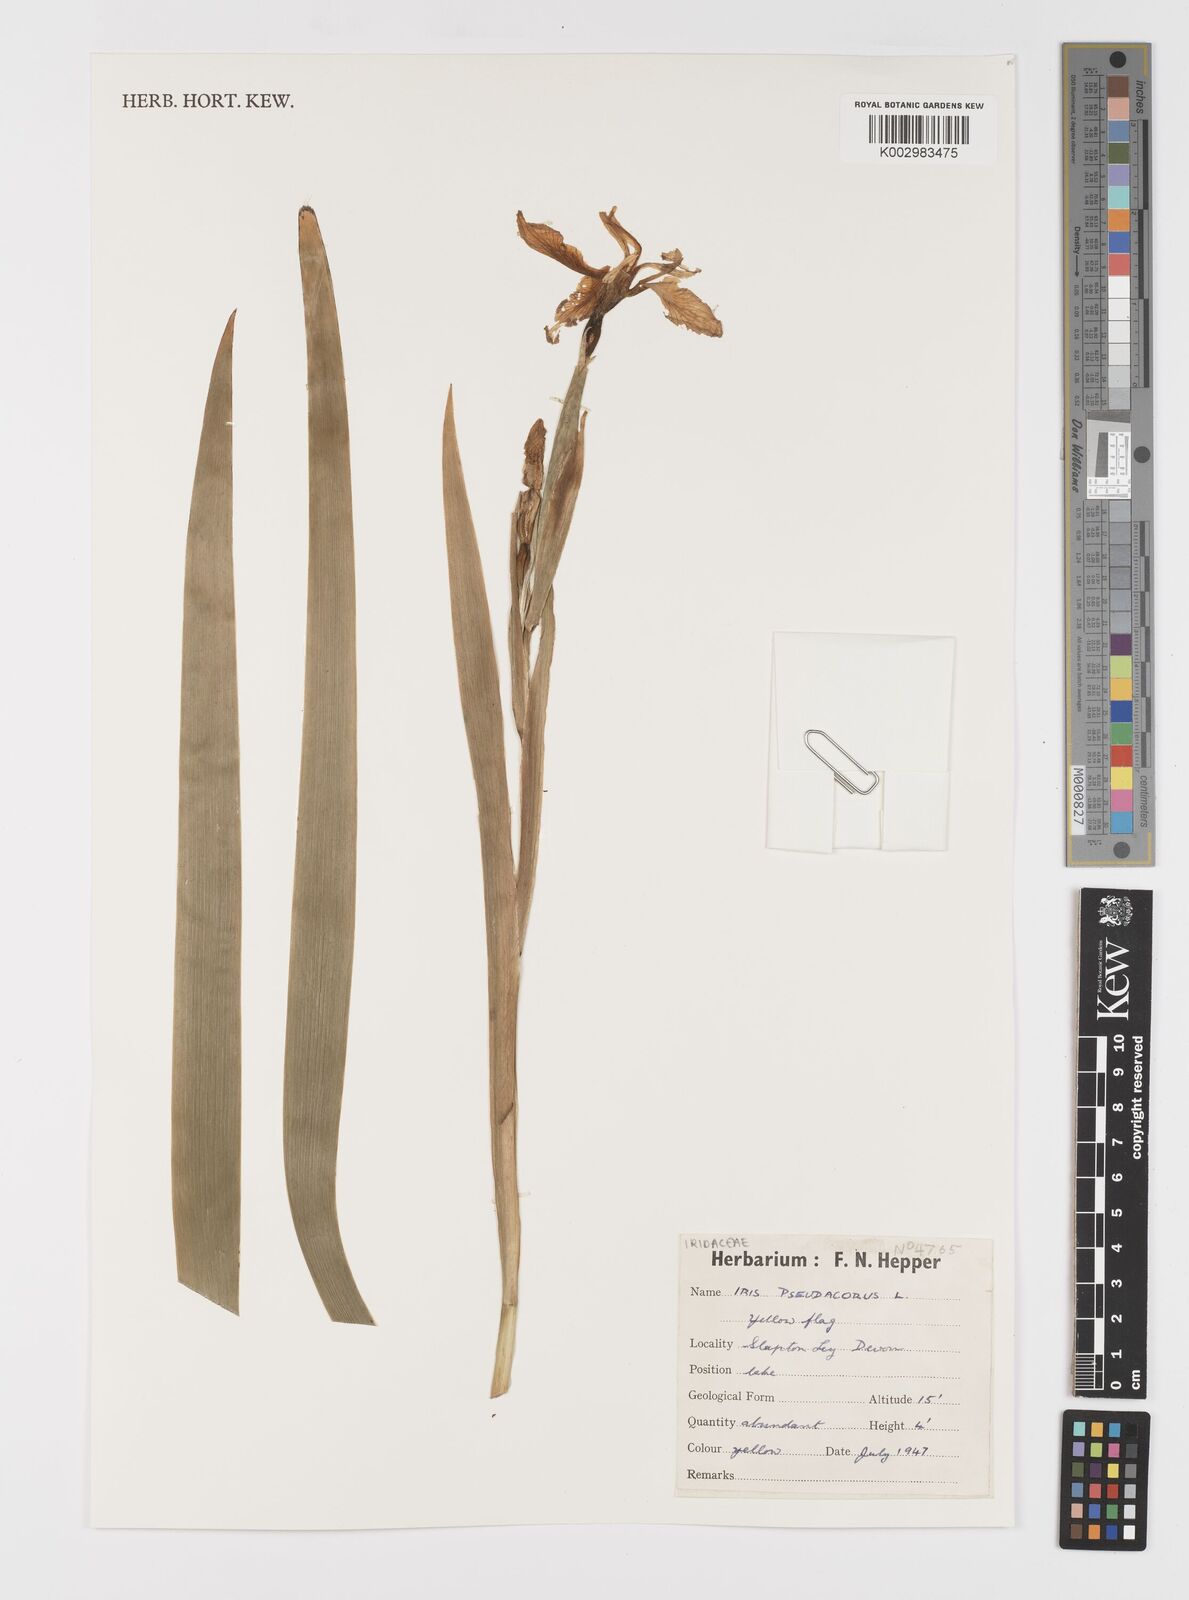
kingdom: Plantae
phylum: Tracheophyta
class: Liliopsida
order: Asparagales
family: Iridaceae
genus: Iris
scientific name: Iris pseudacorus
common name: Yellow flag
